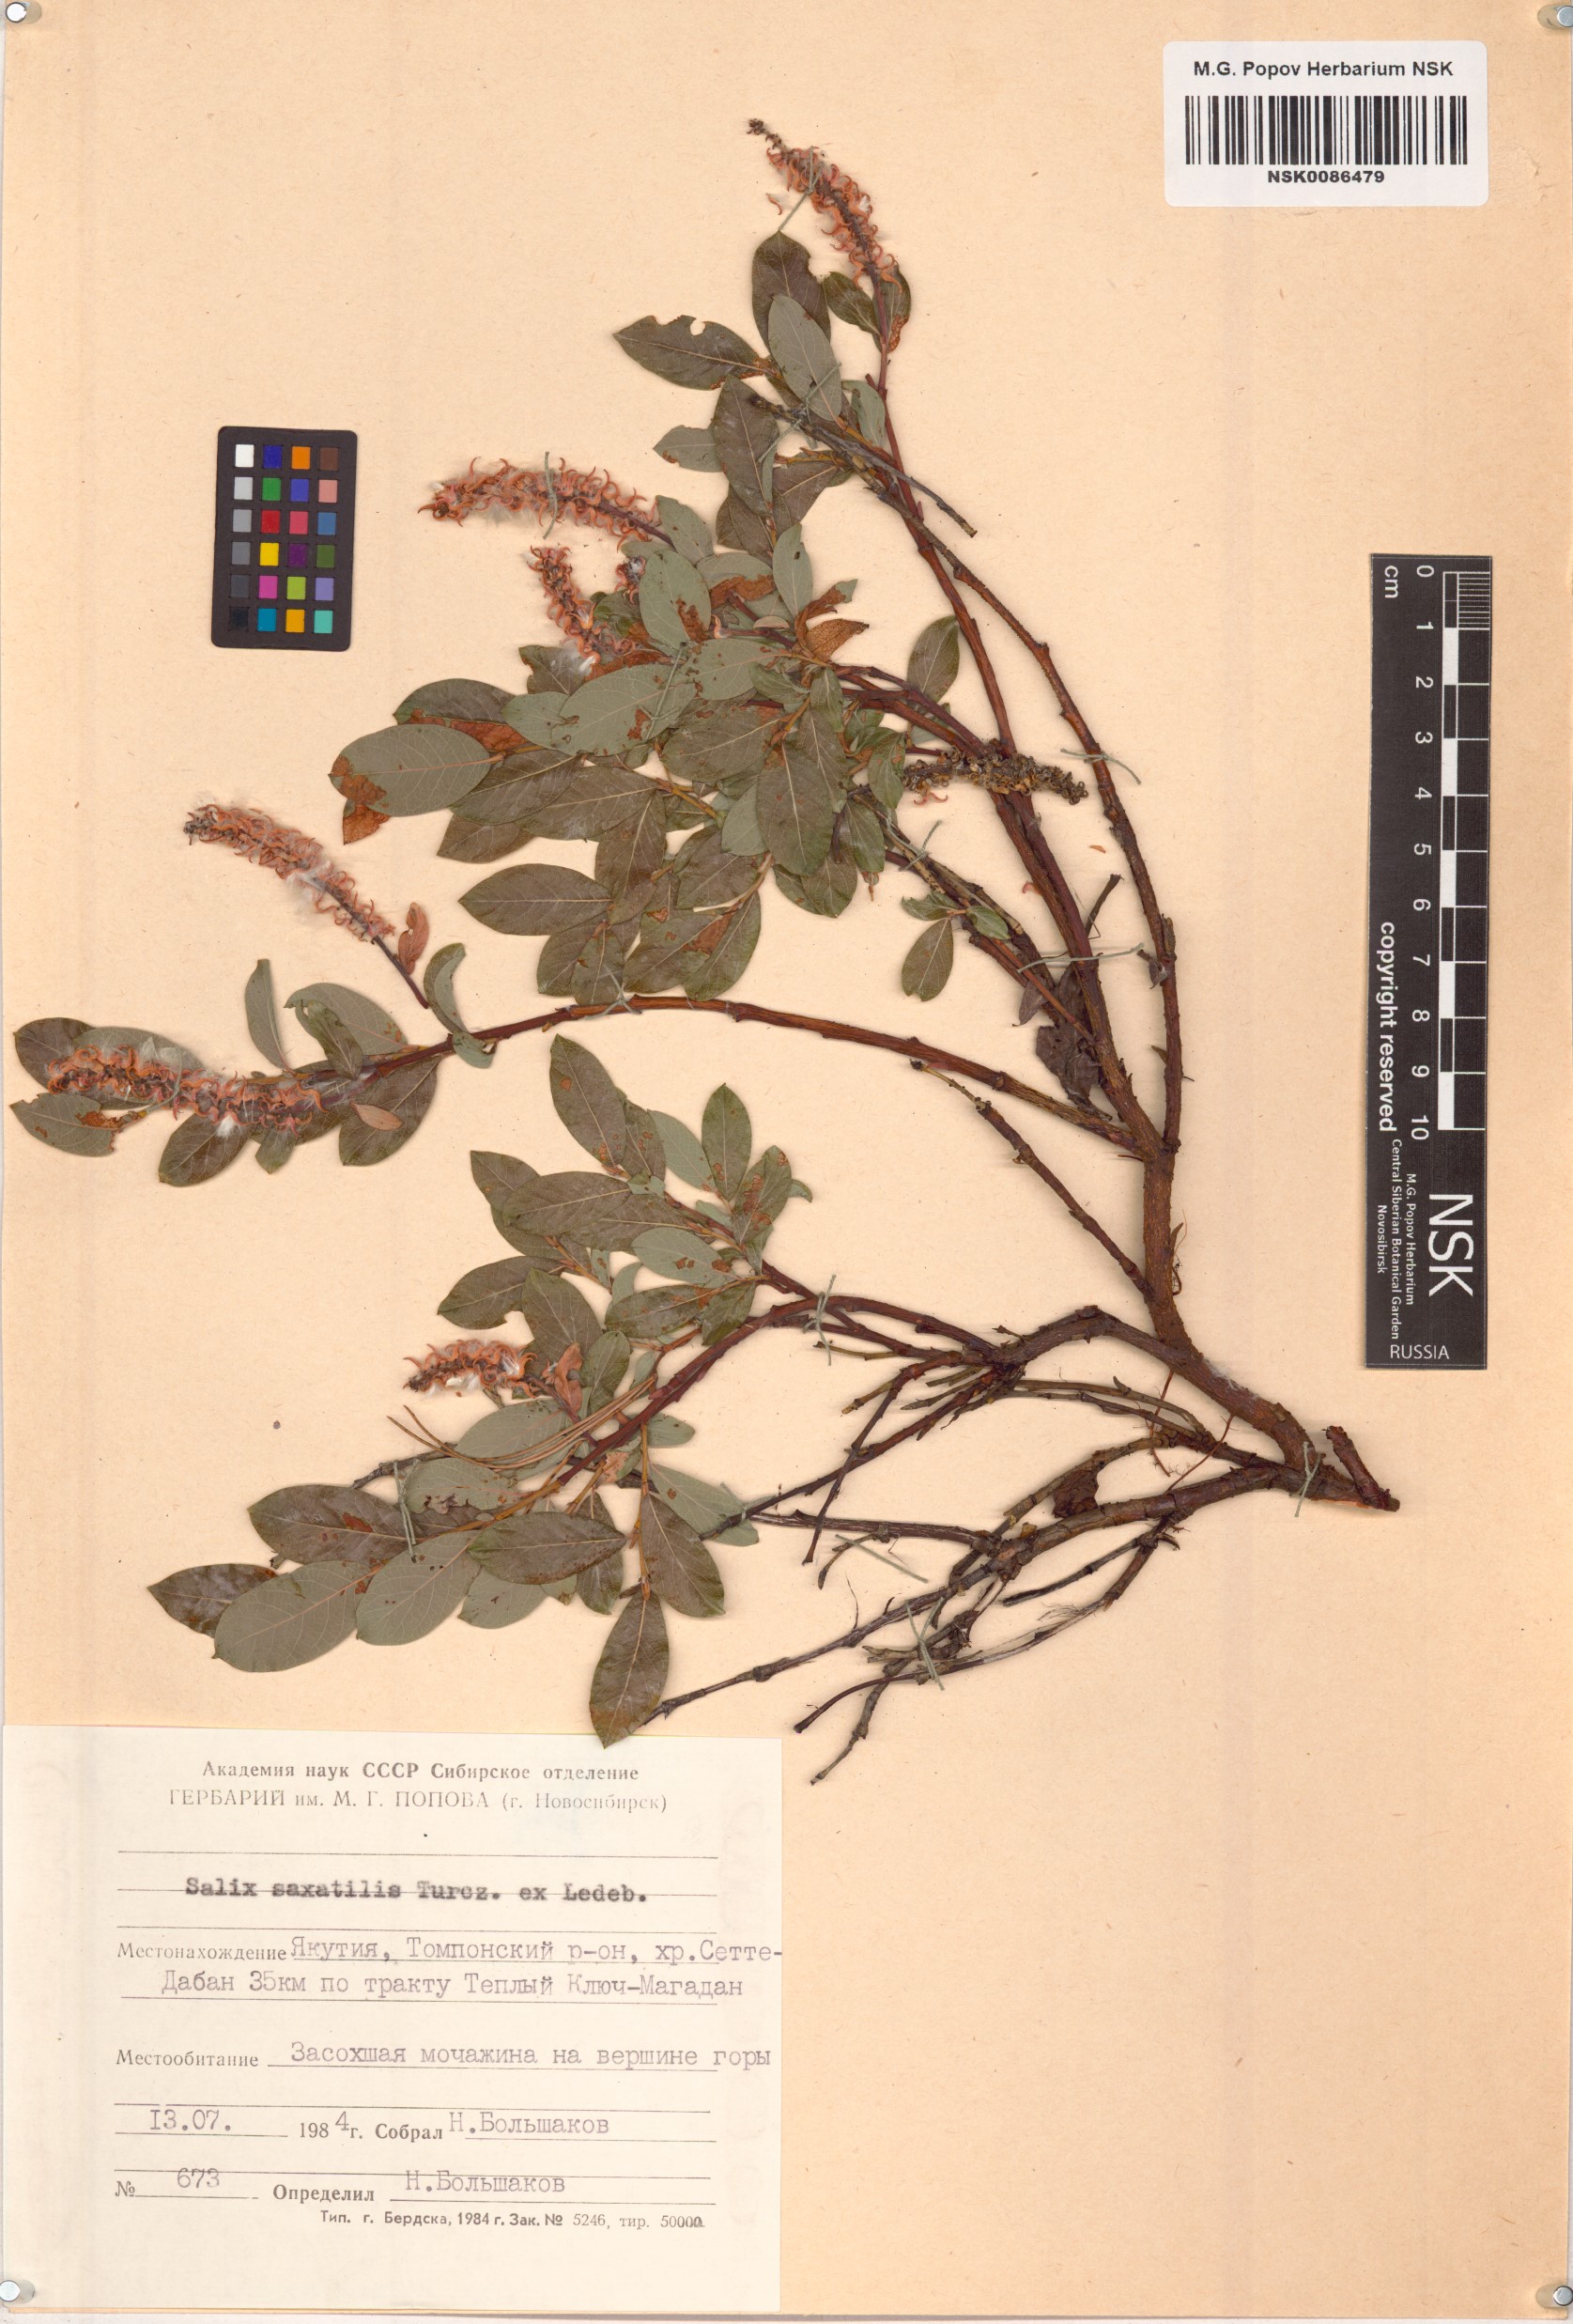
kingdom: Plantae
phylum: Tracheophyta
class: Magnoliopsida
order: Malpighiales
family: Salicaceae
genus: Salix
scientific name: Salix saxatilis
